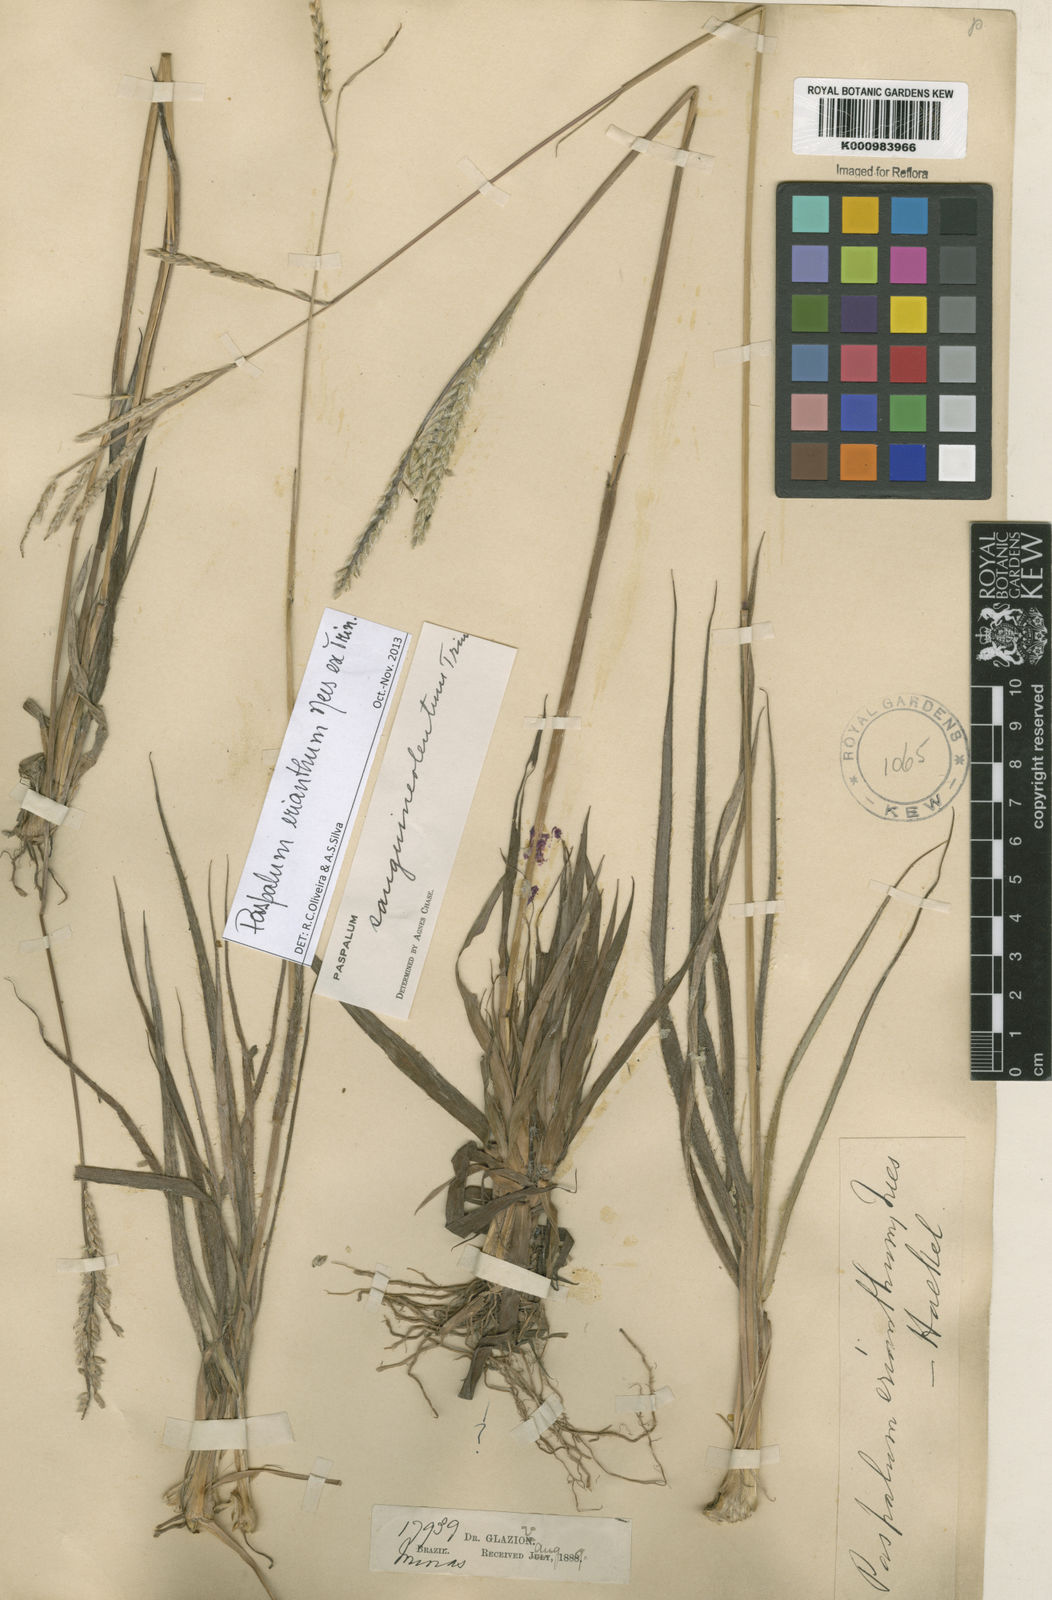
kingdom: Plantae
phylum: Tracheophyta
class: Liliopsida
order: Poales
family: Poaceae
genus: Paspalum
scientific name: Paspalum erianthum
